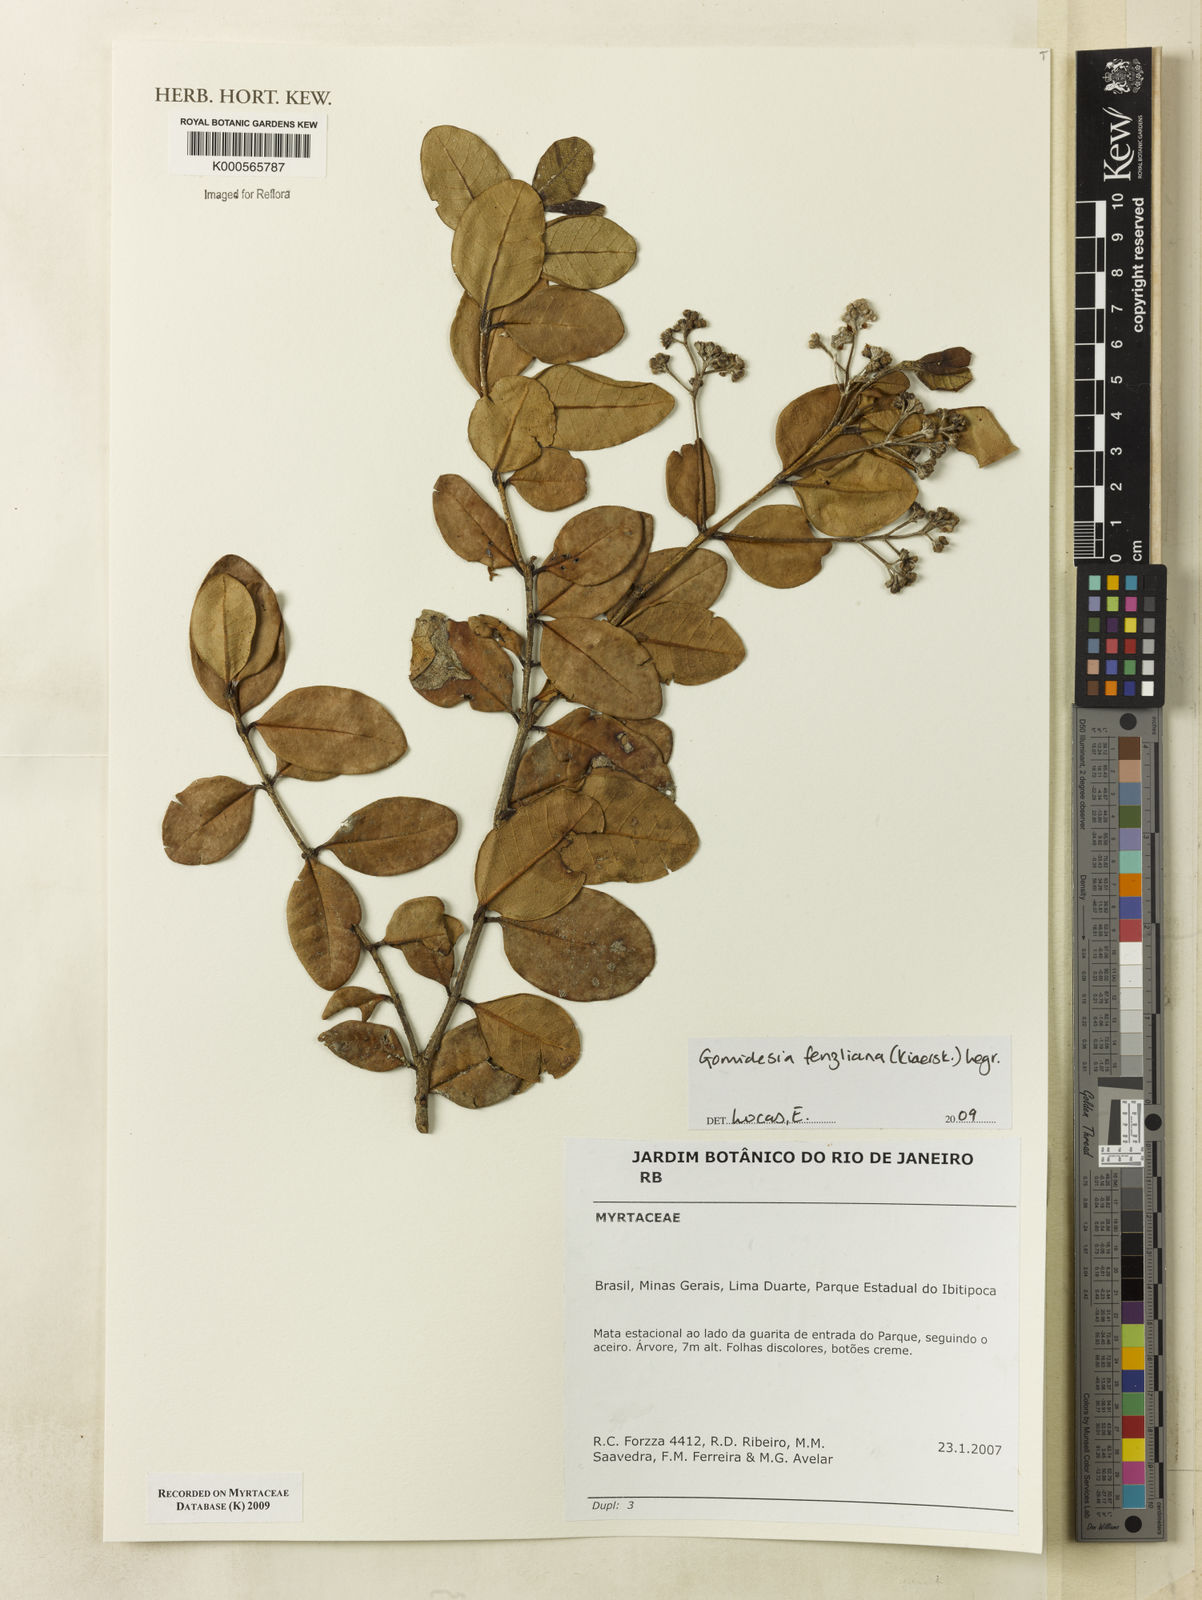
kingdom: Plantae
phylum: Tracheophyta
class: Magnoliopsida
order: Myrtales
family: Myrtaceae
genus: Myrcia
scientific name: Myrcia ilheosensis
